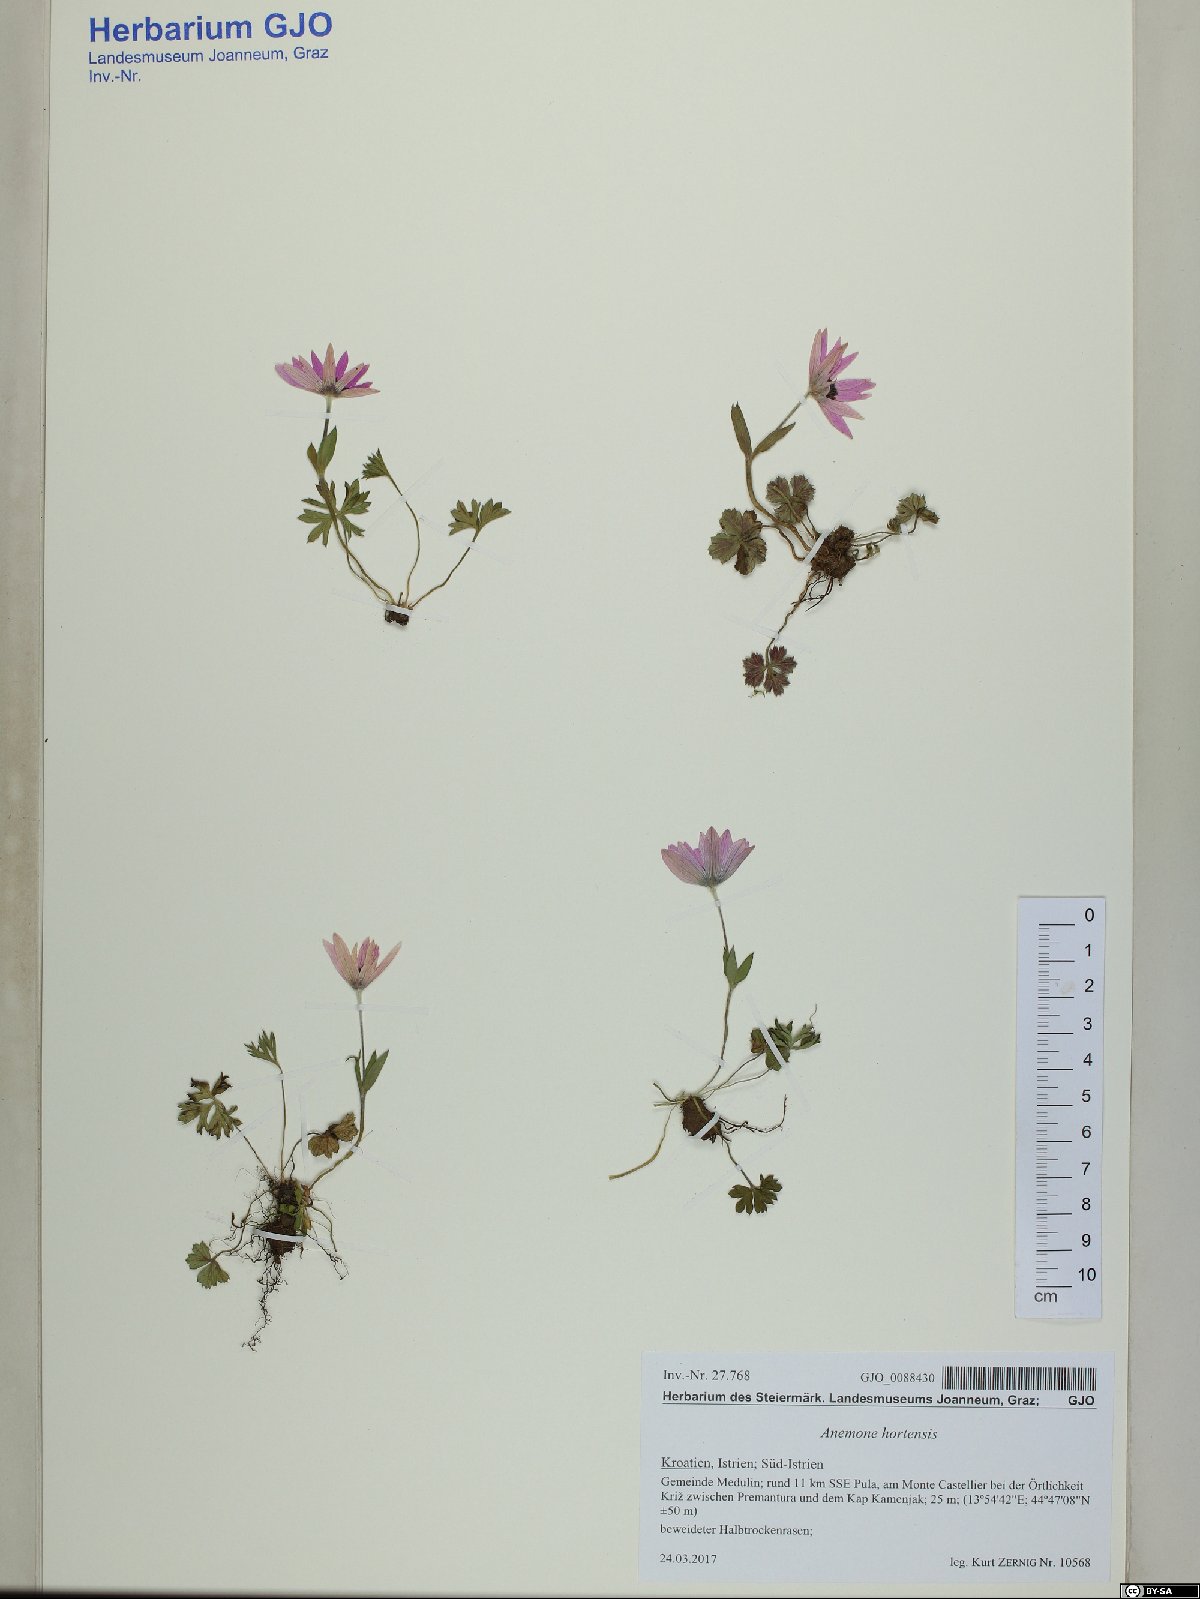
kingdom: Plantae
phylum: Tracheophyta
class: Magnoliopsida
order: Ranunculales
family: Ranunculaceae
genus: Anemone
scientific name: Anemone hortensis
